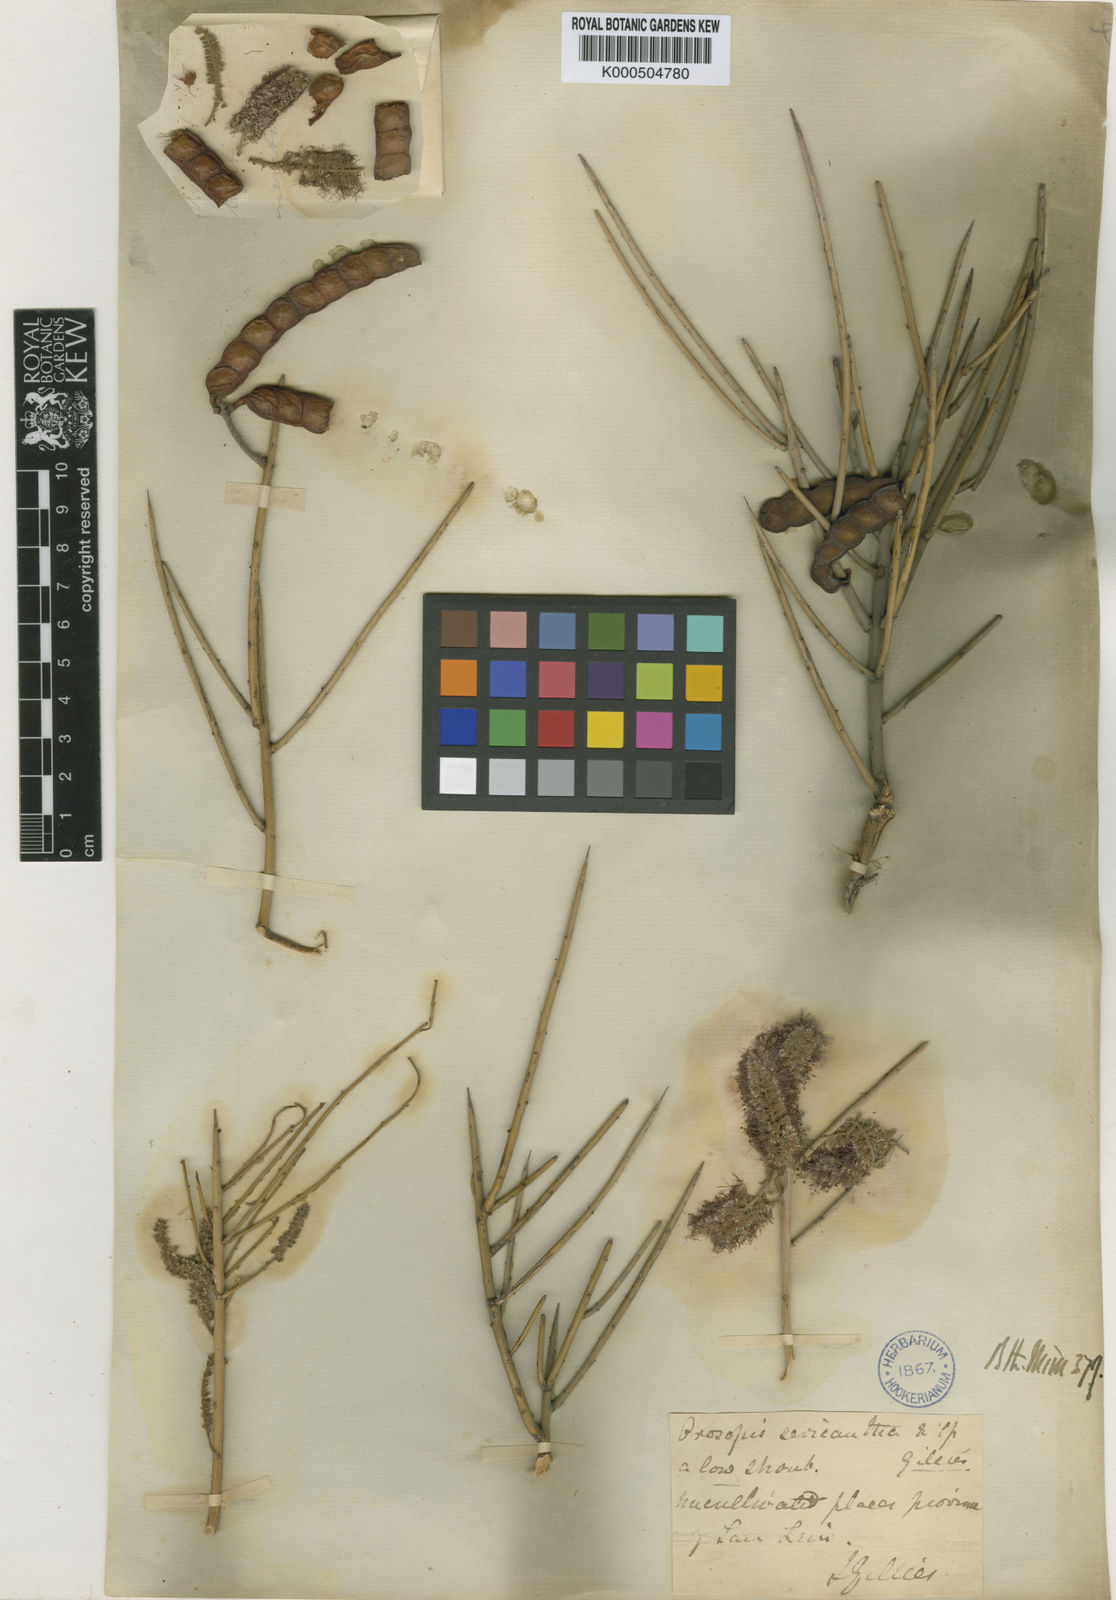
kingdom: Plantae
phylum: Tracheophyta
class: Magnoliopsida
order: Fabales
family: Fabaceae
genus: Prosopis
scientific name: Prosopis sericantha
